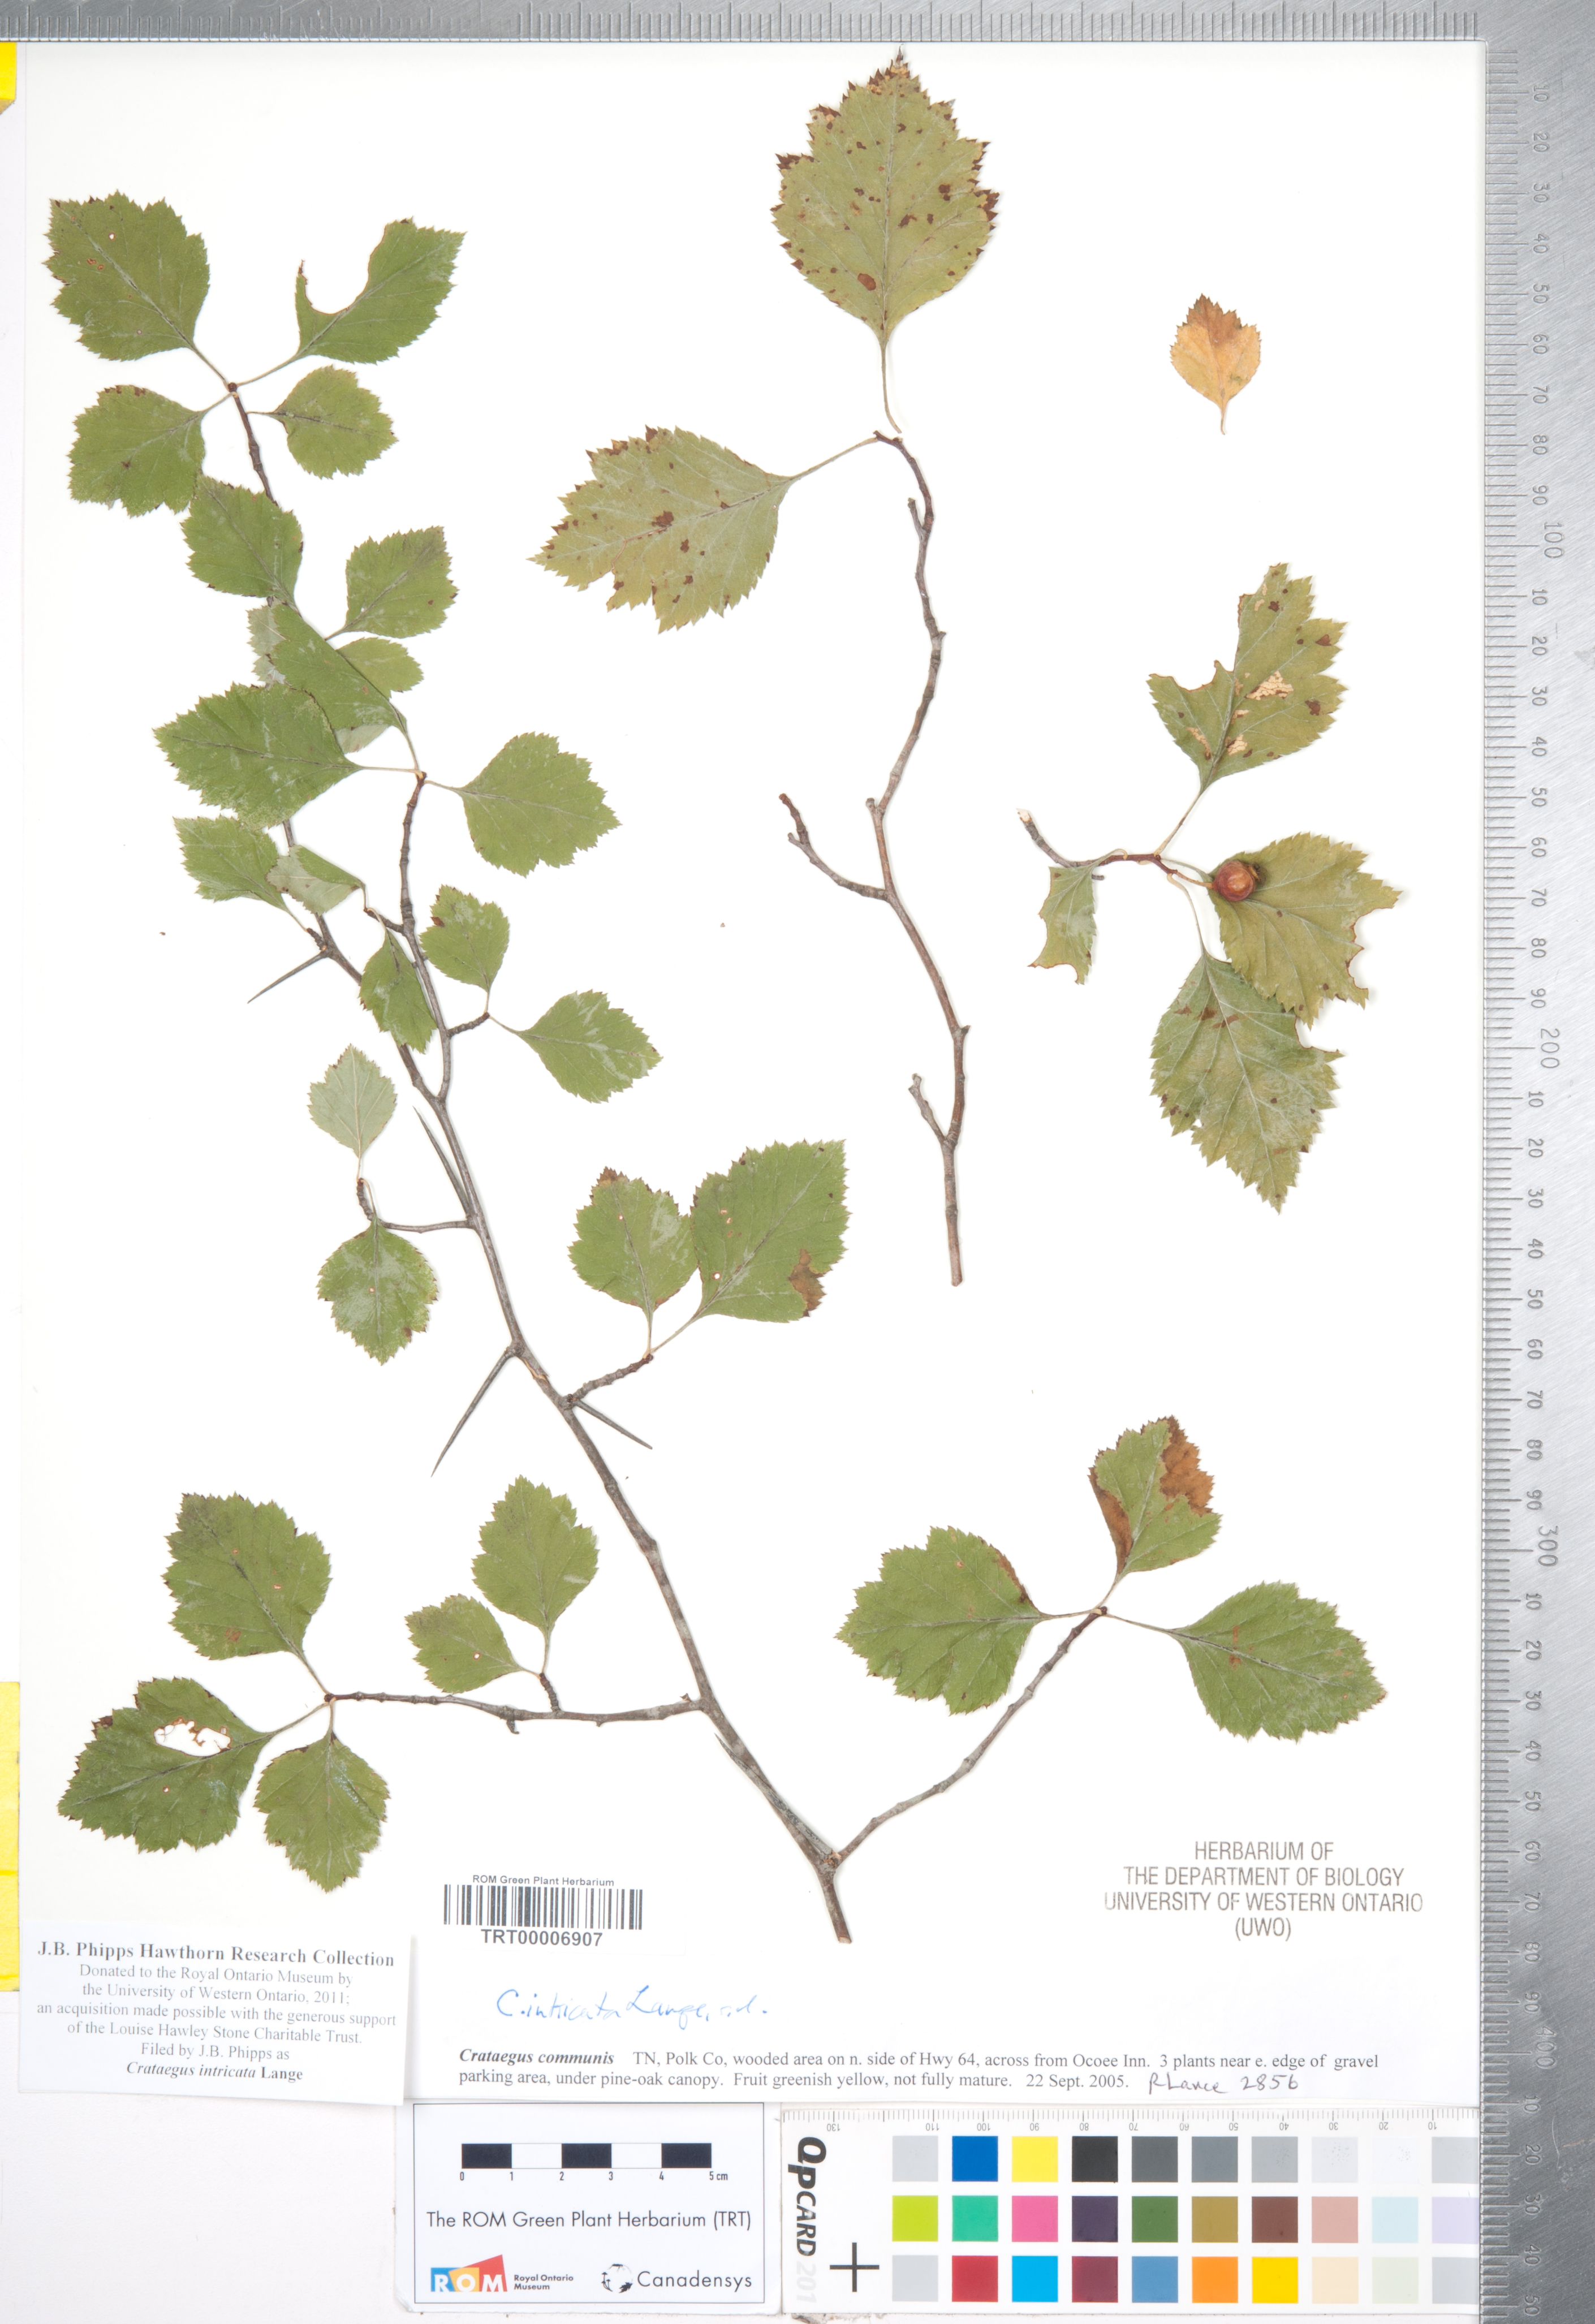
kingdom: Plantae
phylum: Tracheophyta
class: Magnoliopsida
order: Rosales
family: Rosaceae
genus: Crataegus
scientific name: Crataegus intricata
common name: Biltmore hawthorn
